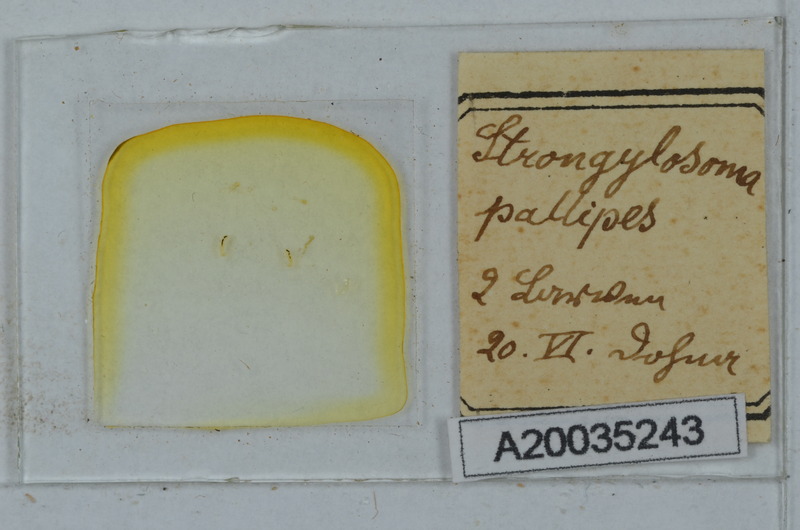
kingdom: Animalia
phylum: Arthropoda
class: Diplopoda
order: Polydesmida
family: Paradoxosomatidae
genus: Strongylosoma
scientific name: Strongylosoma stigmatosus
